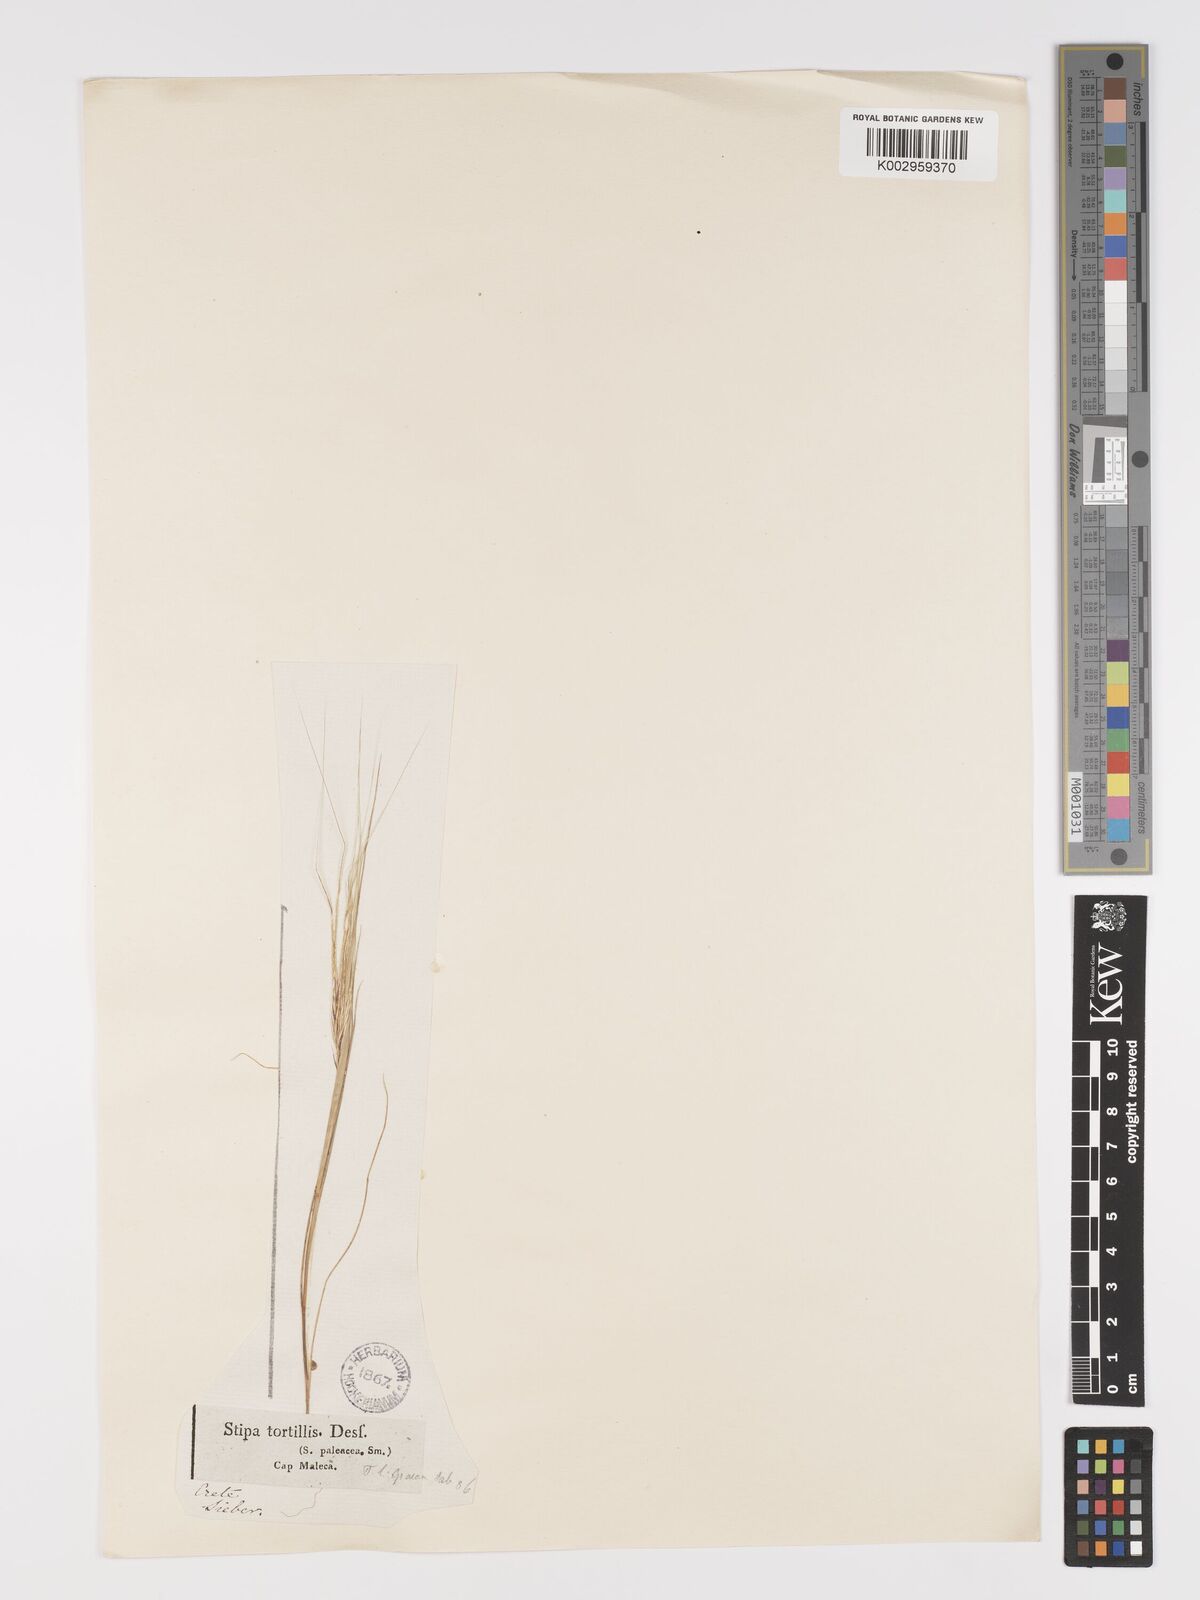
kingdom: Plantae
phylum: Tracheophyta
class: Liliopsida
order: Poales
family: Poaceae
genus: Stipellula
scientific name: Stipellula capensis
